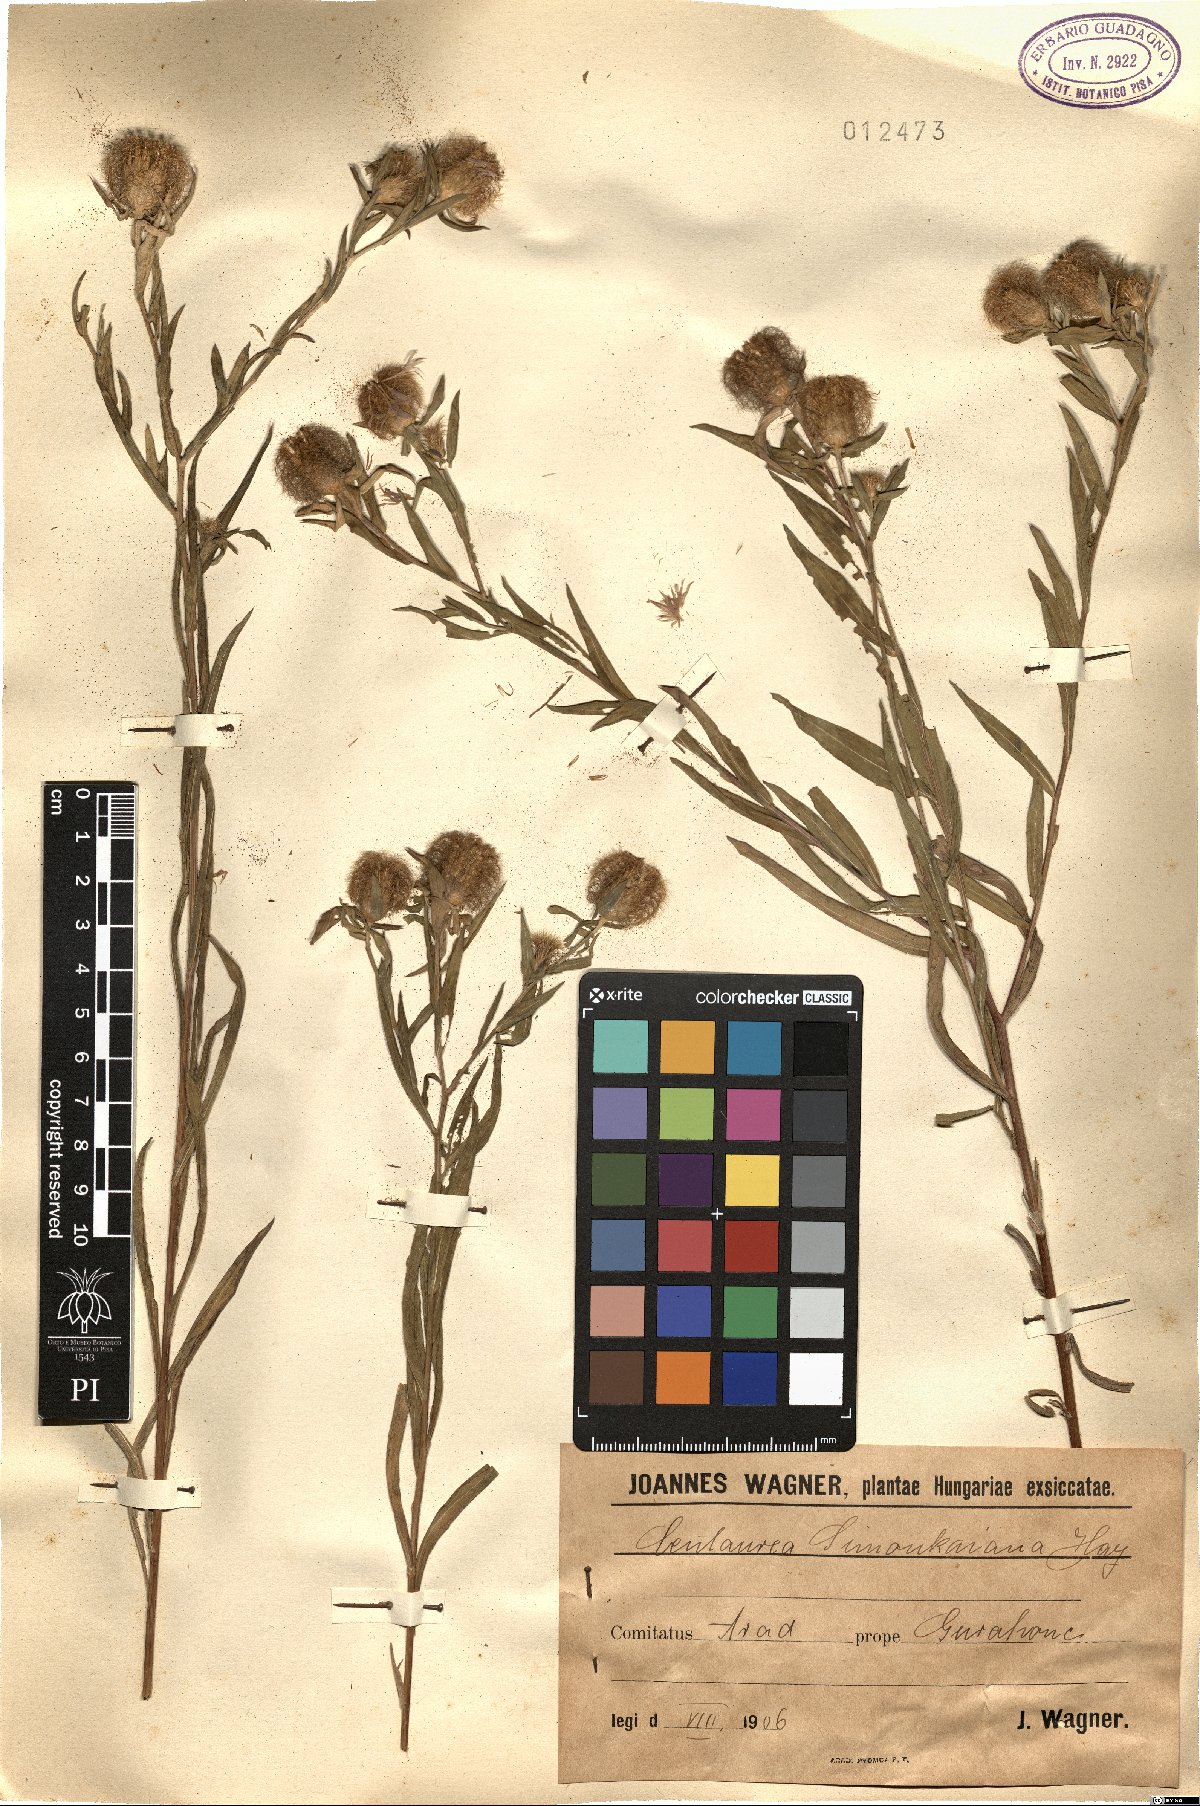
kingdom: Plantae
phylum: Tracheophyta
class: Magnoliopsida
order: Asterales
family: Asteraceae
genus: Centaurea
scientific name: Centaurea simonkaiana
